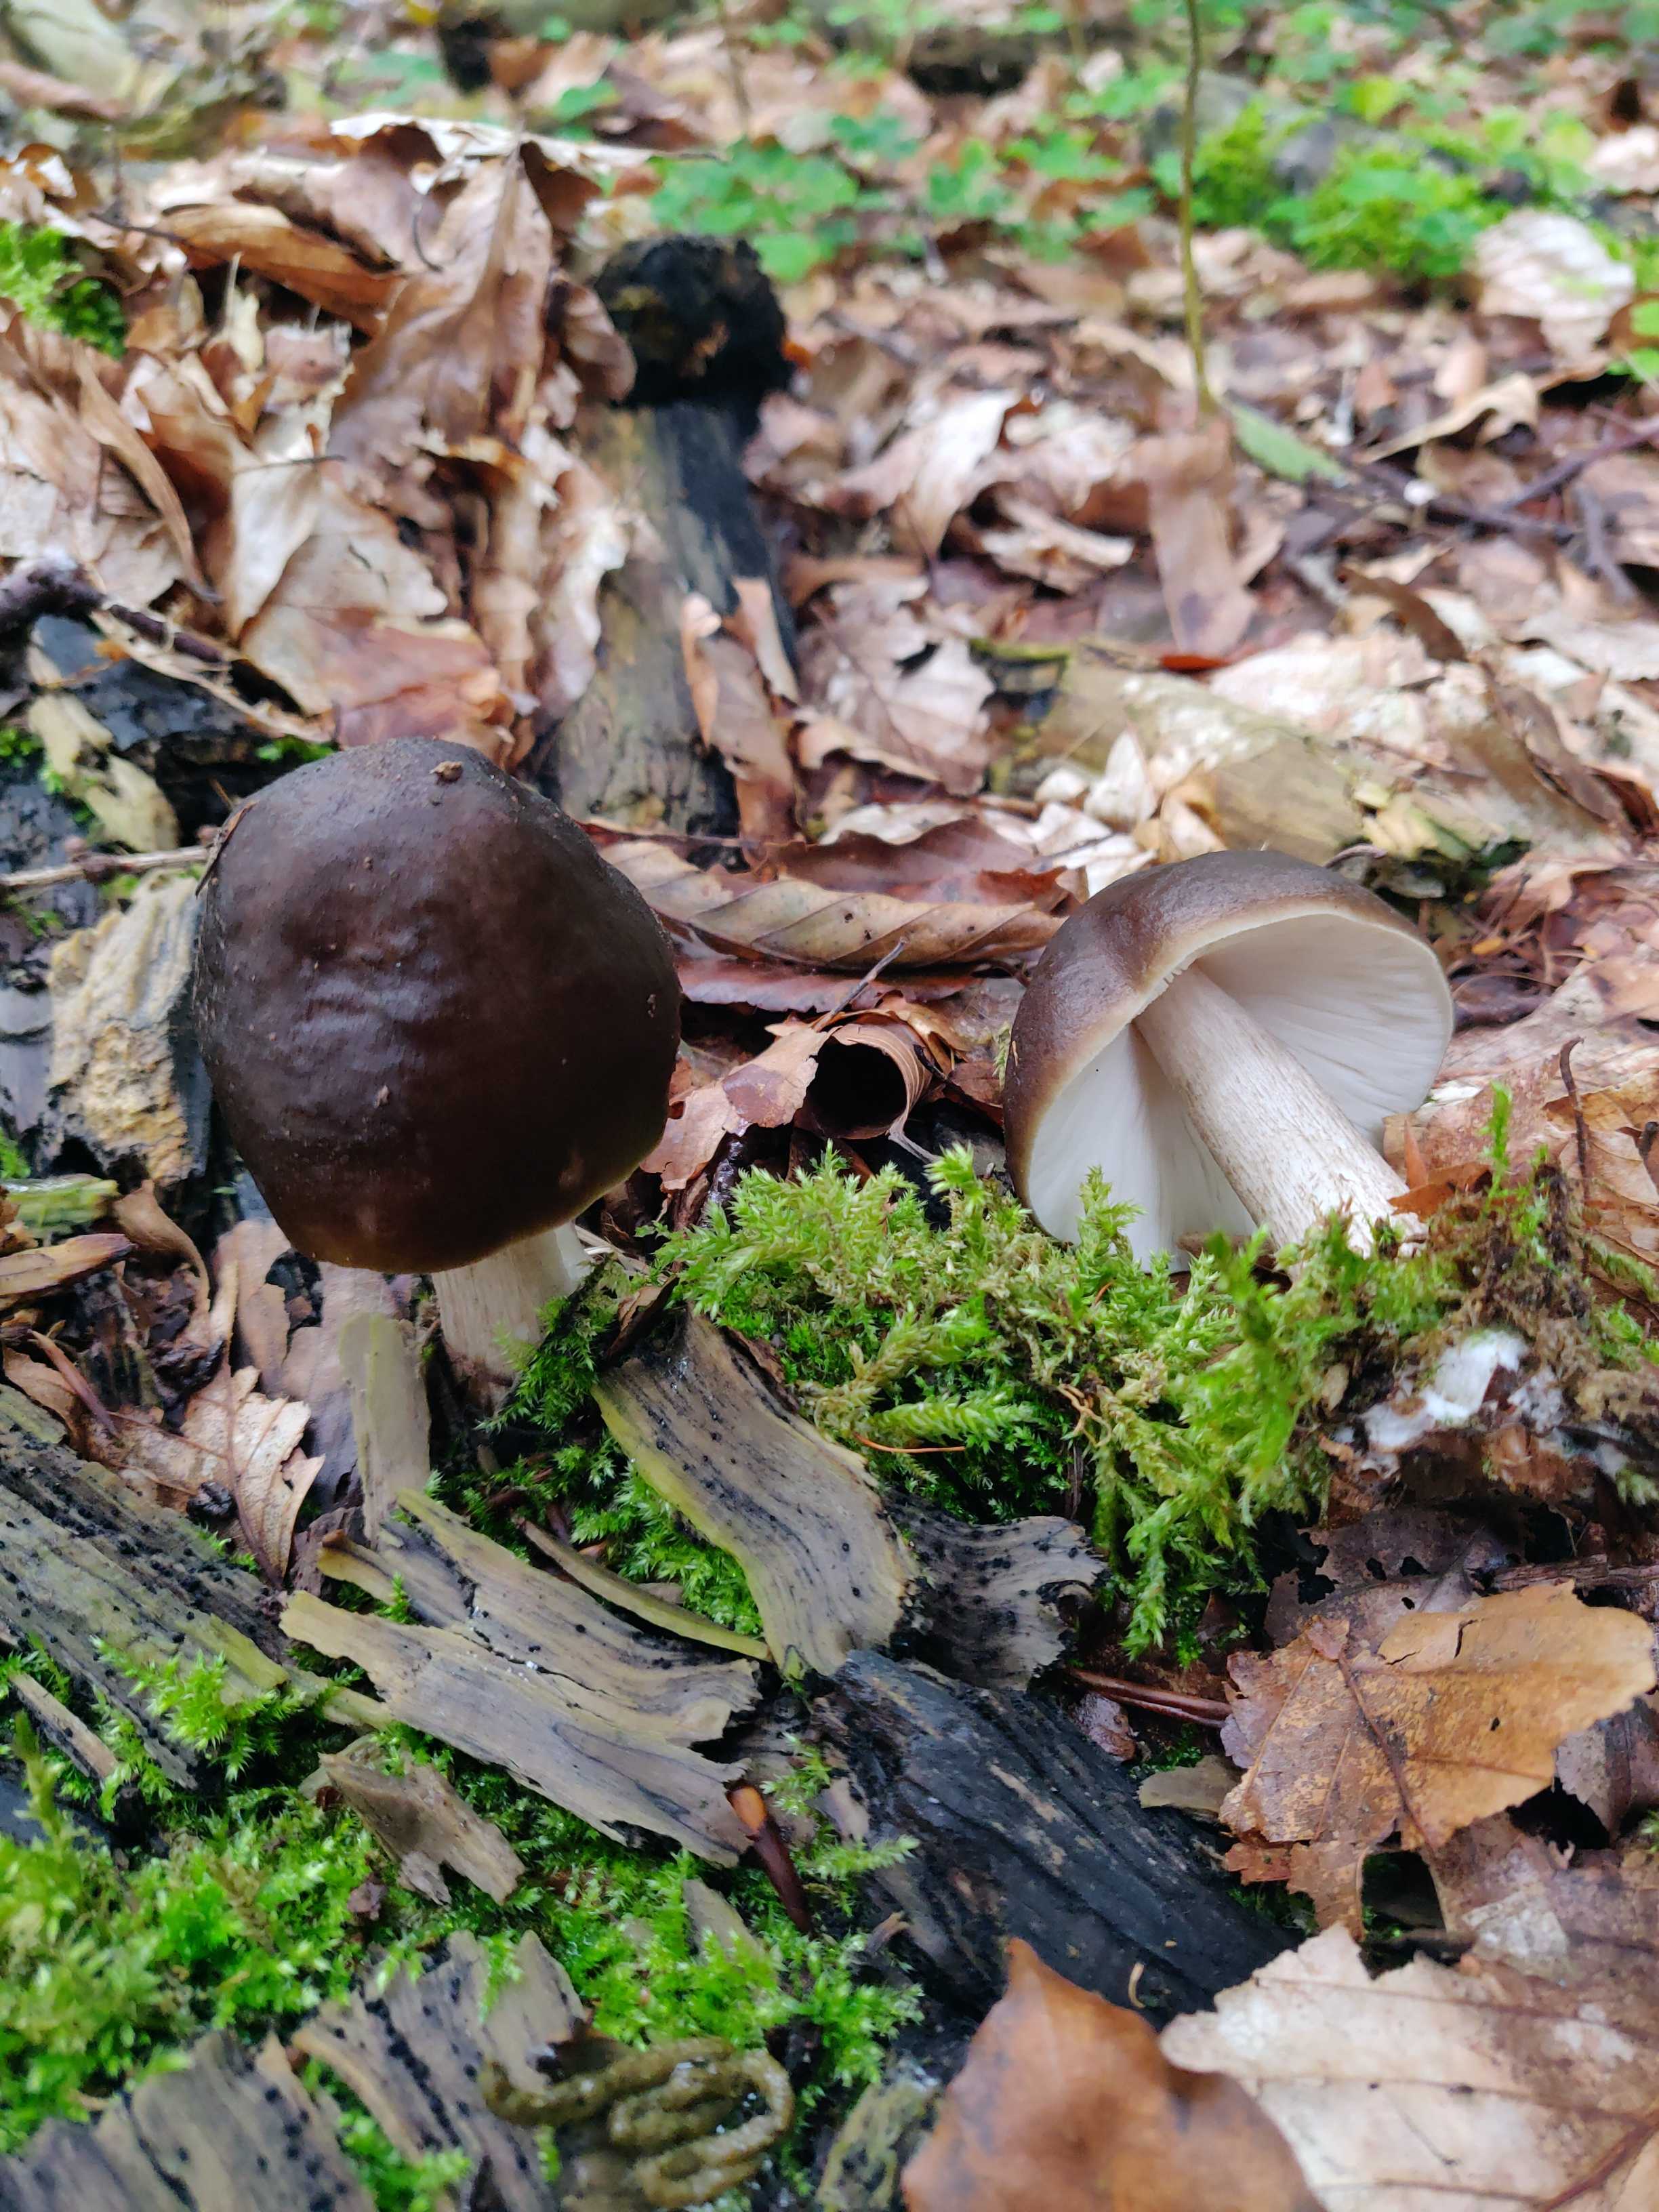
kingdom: Fungi
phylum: Basidiomycota
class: Agaricomycetes
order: Agaricales
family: Pluteaceae
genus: Pluteus
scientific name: Pluteus cervinus
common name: sodfarvet skærmhat
